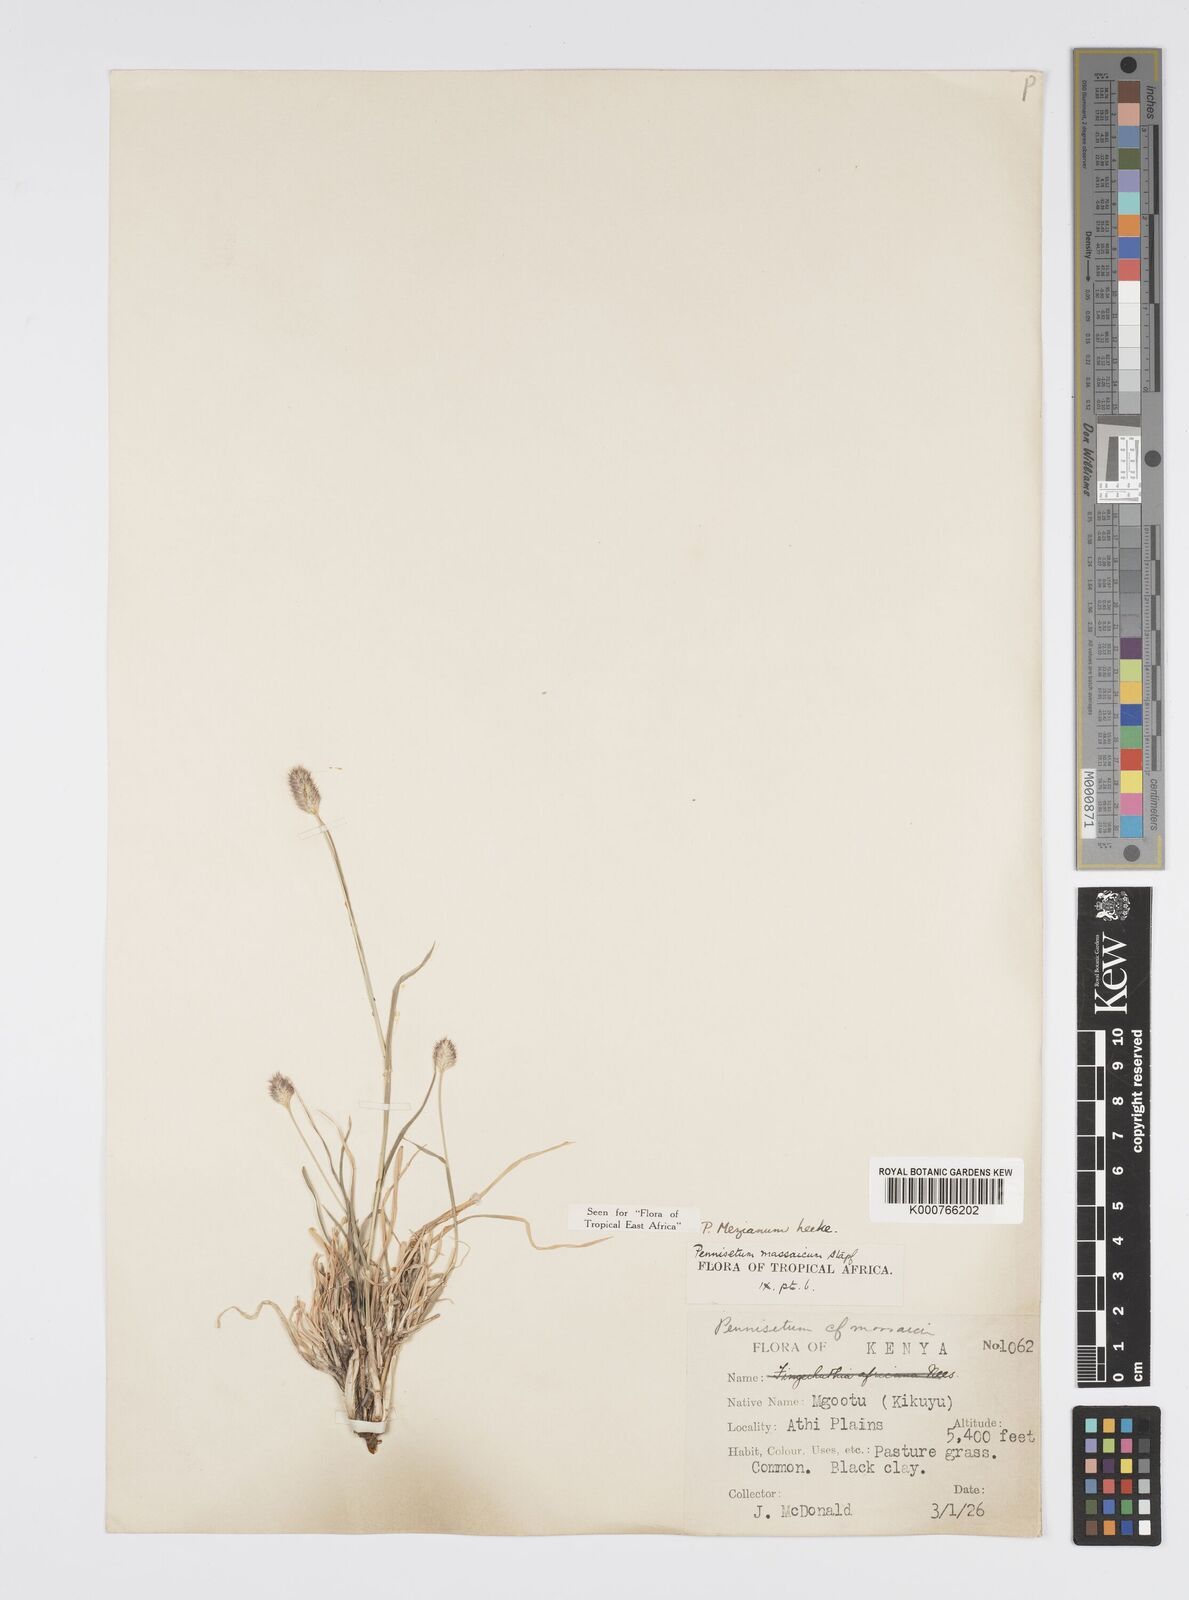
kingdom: Plantae
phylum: Tracheophyta
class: Liliopsida
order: Poales
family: Poaceae
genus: Cenchrus
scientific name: Cenchrus mezianus
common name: Bamboo grass
